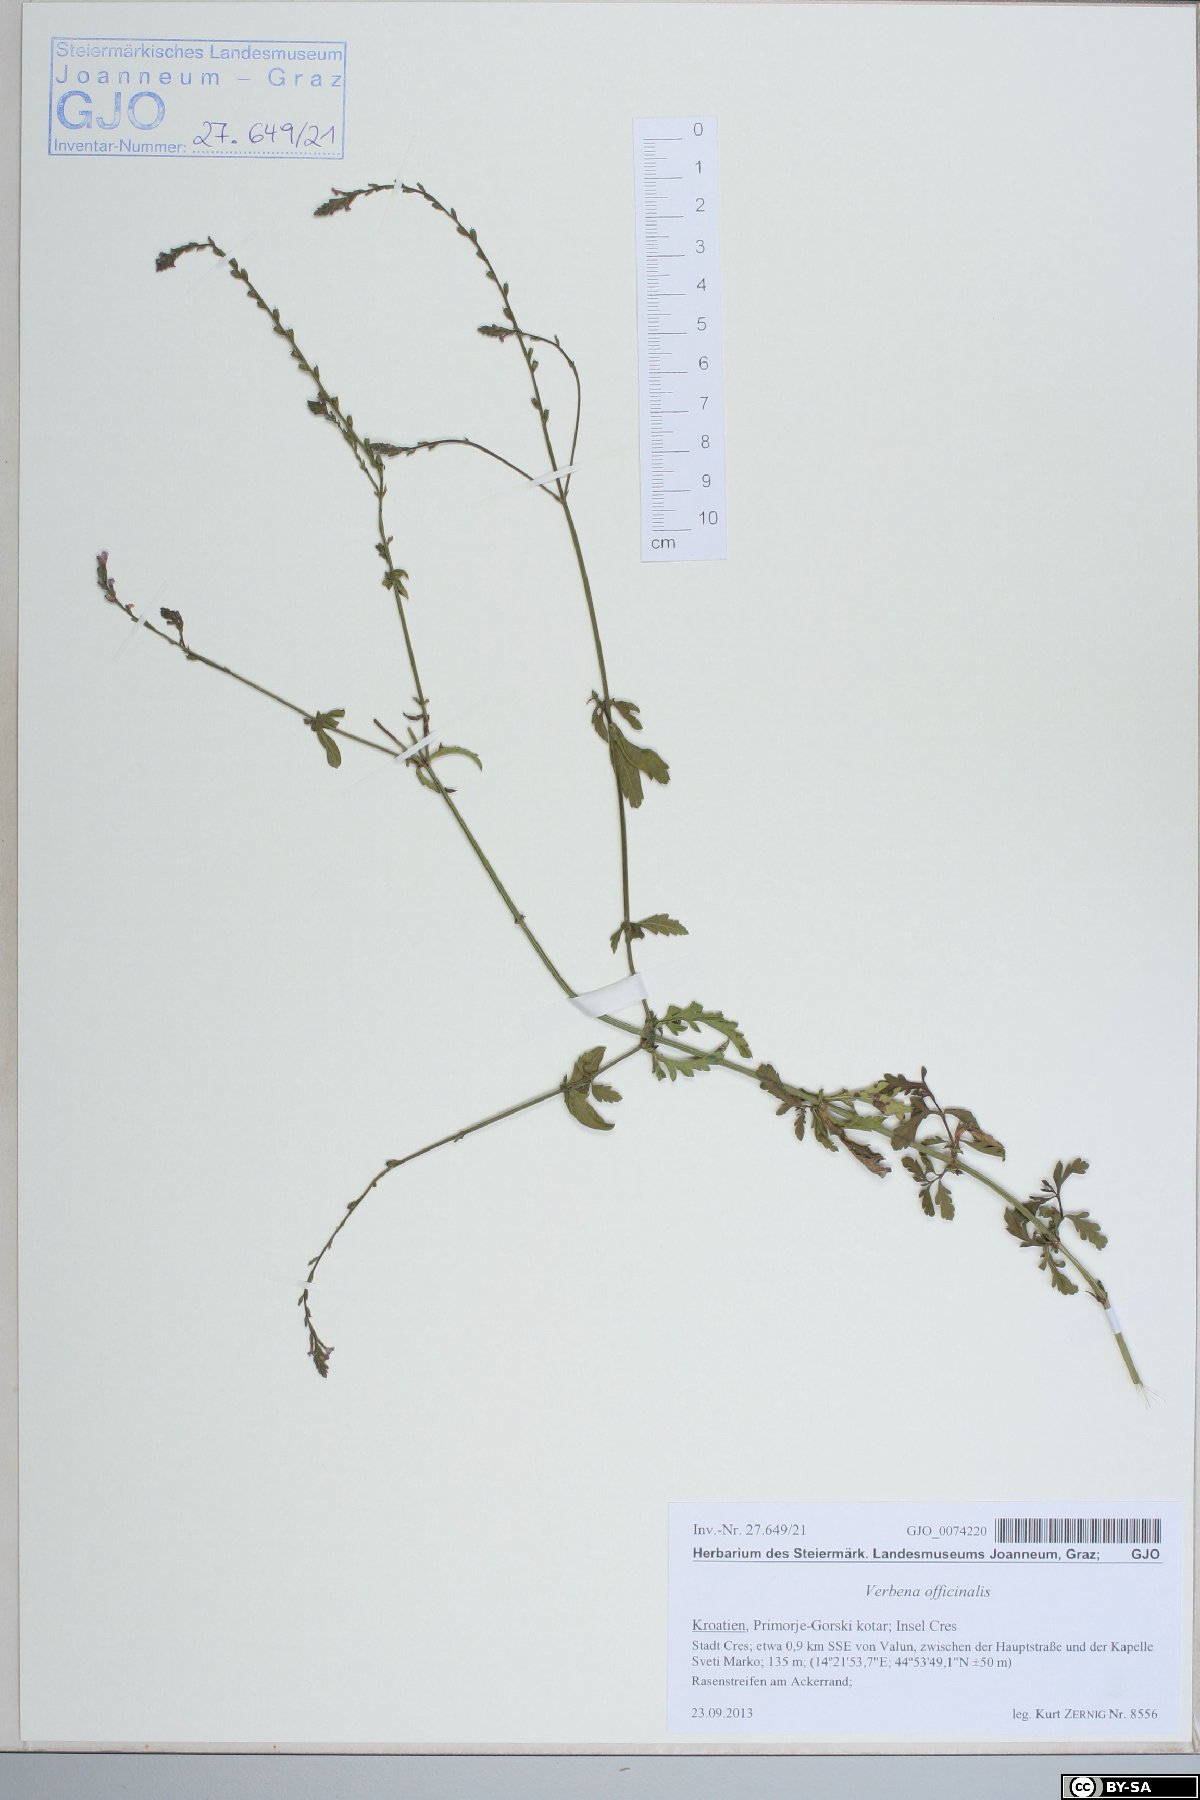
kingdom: Plantae
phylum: Tracheophyta
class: Magnoliopsida
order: Lamiales
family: Verbenaceae
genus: Verbena
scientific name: Verbena officinalis
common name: Vervain
